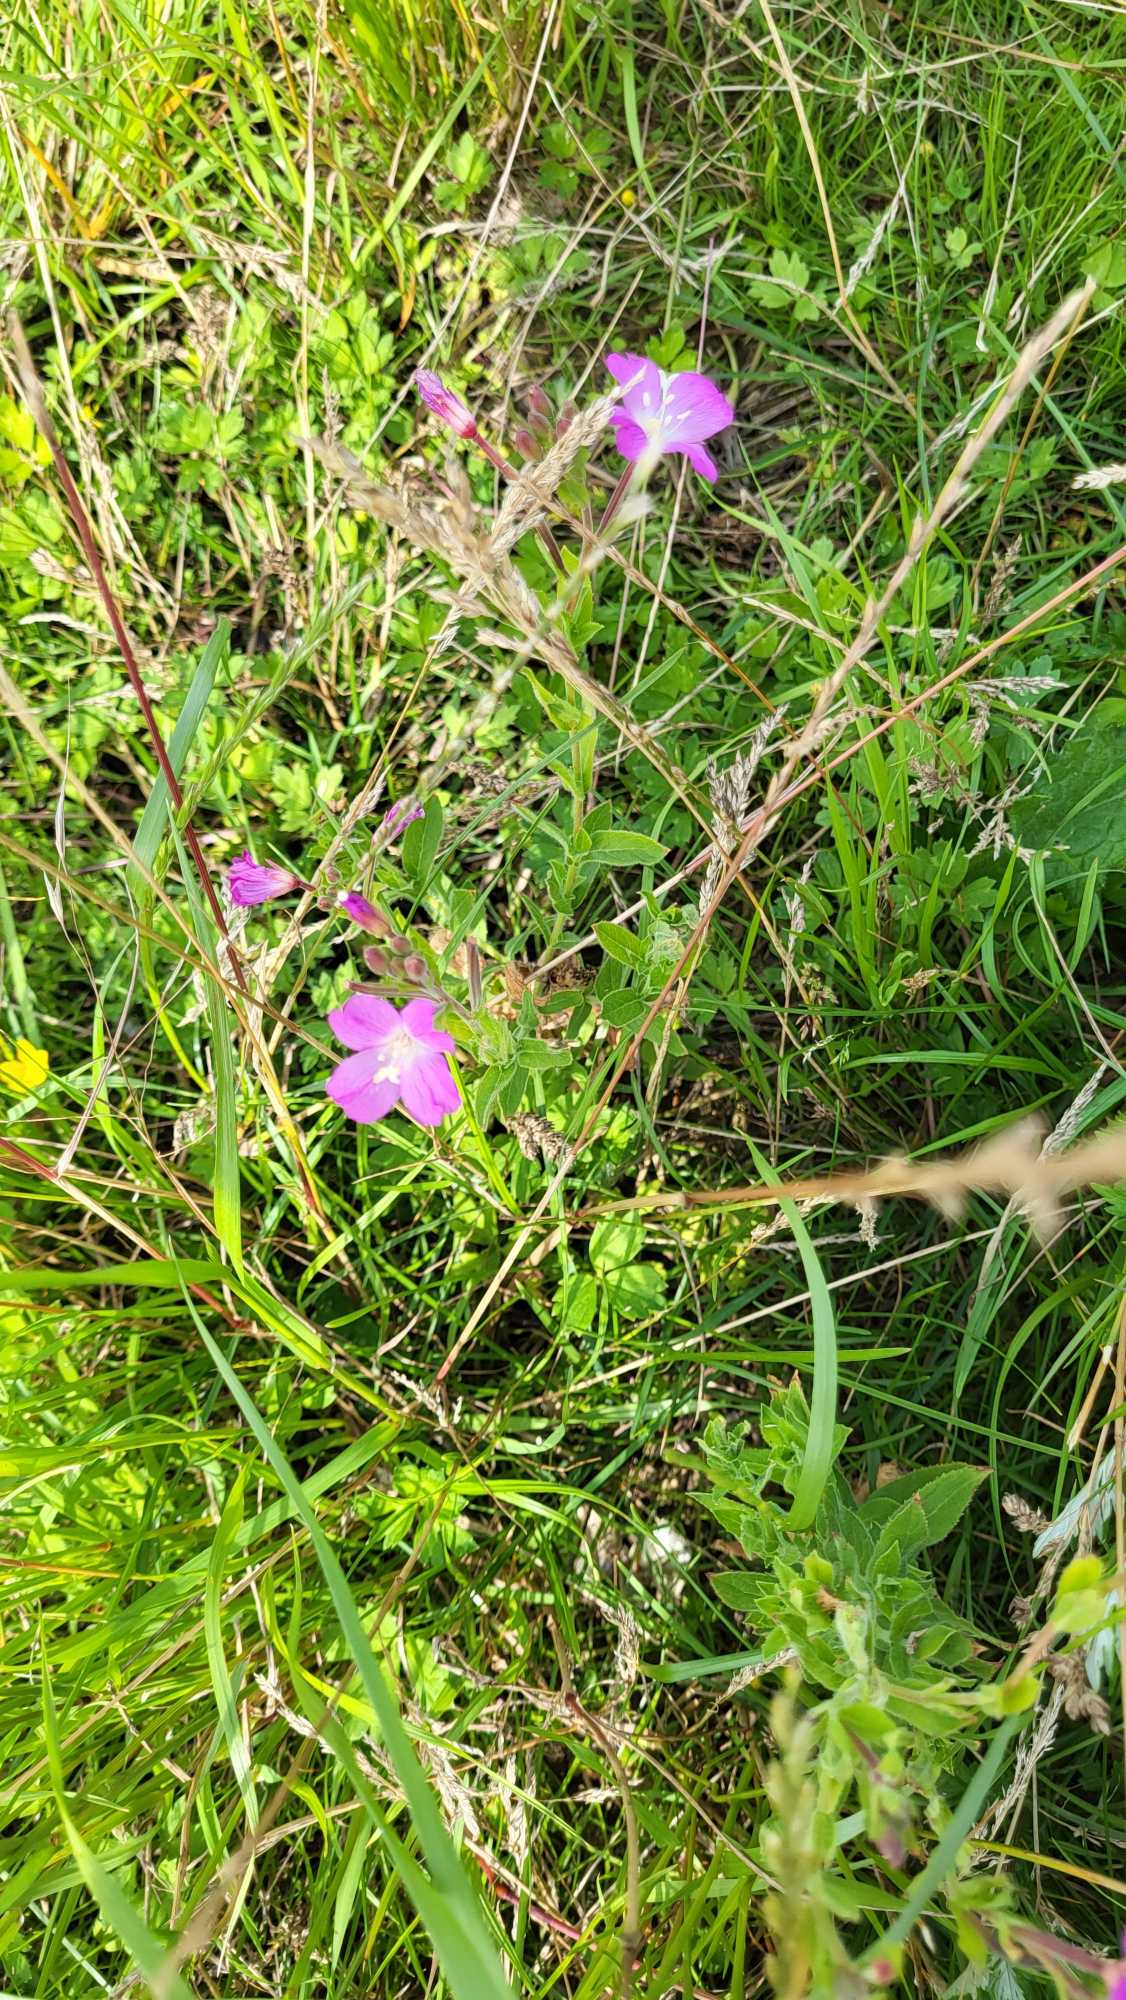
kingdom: Plantae
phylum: Tracheophyta
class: Magnoliopsida
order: Myrtales
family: Onagraceae
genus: Epilobium
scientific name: Epilobium hirsutum
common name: Lådden dueurt
